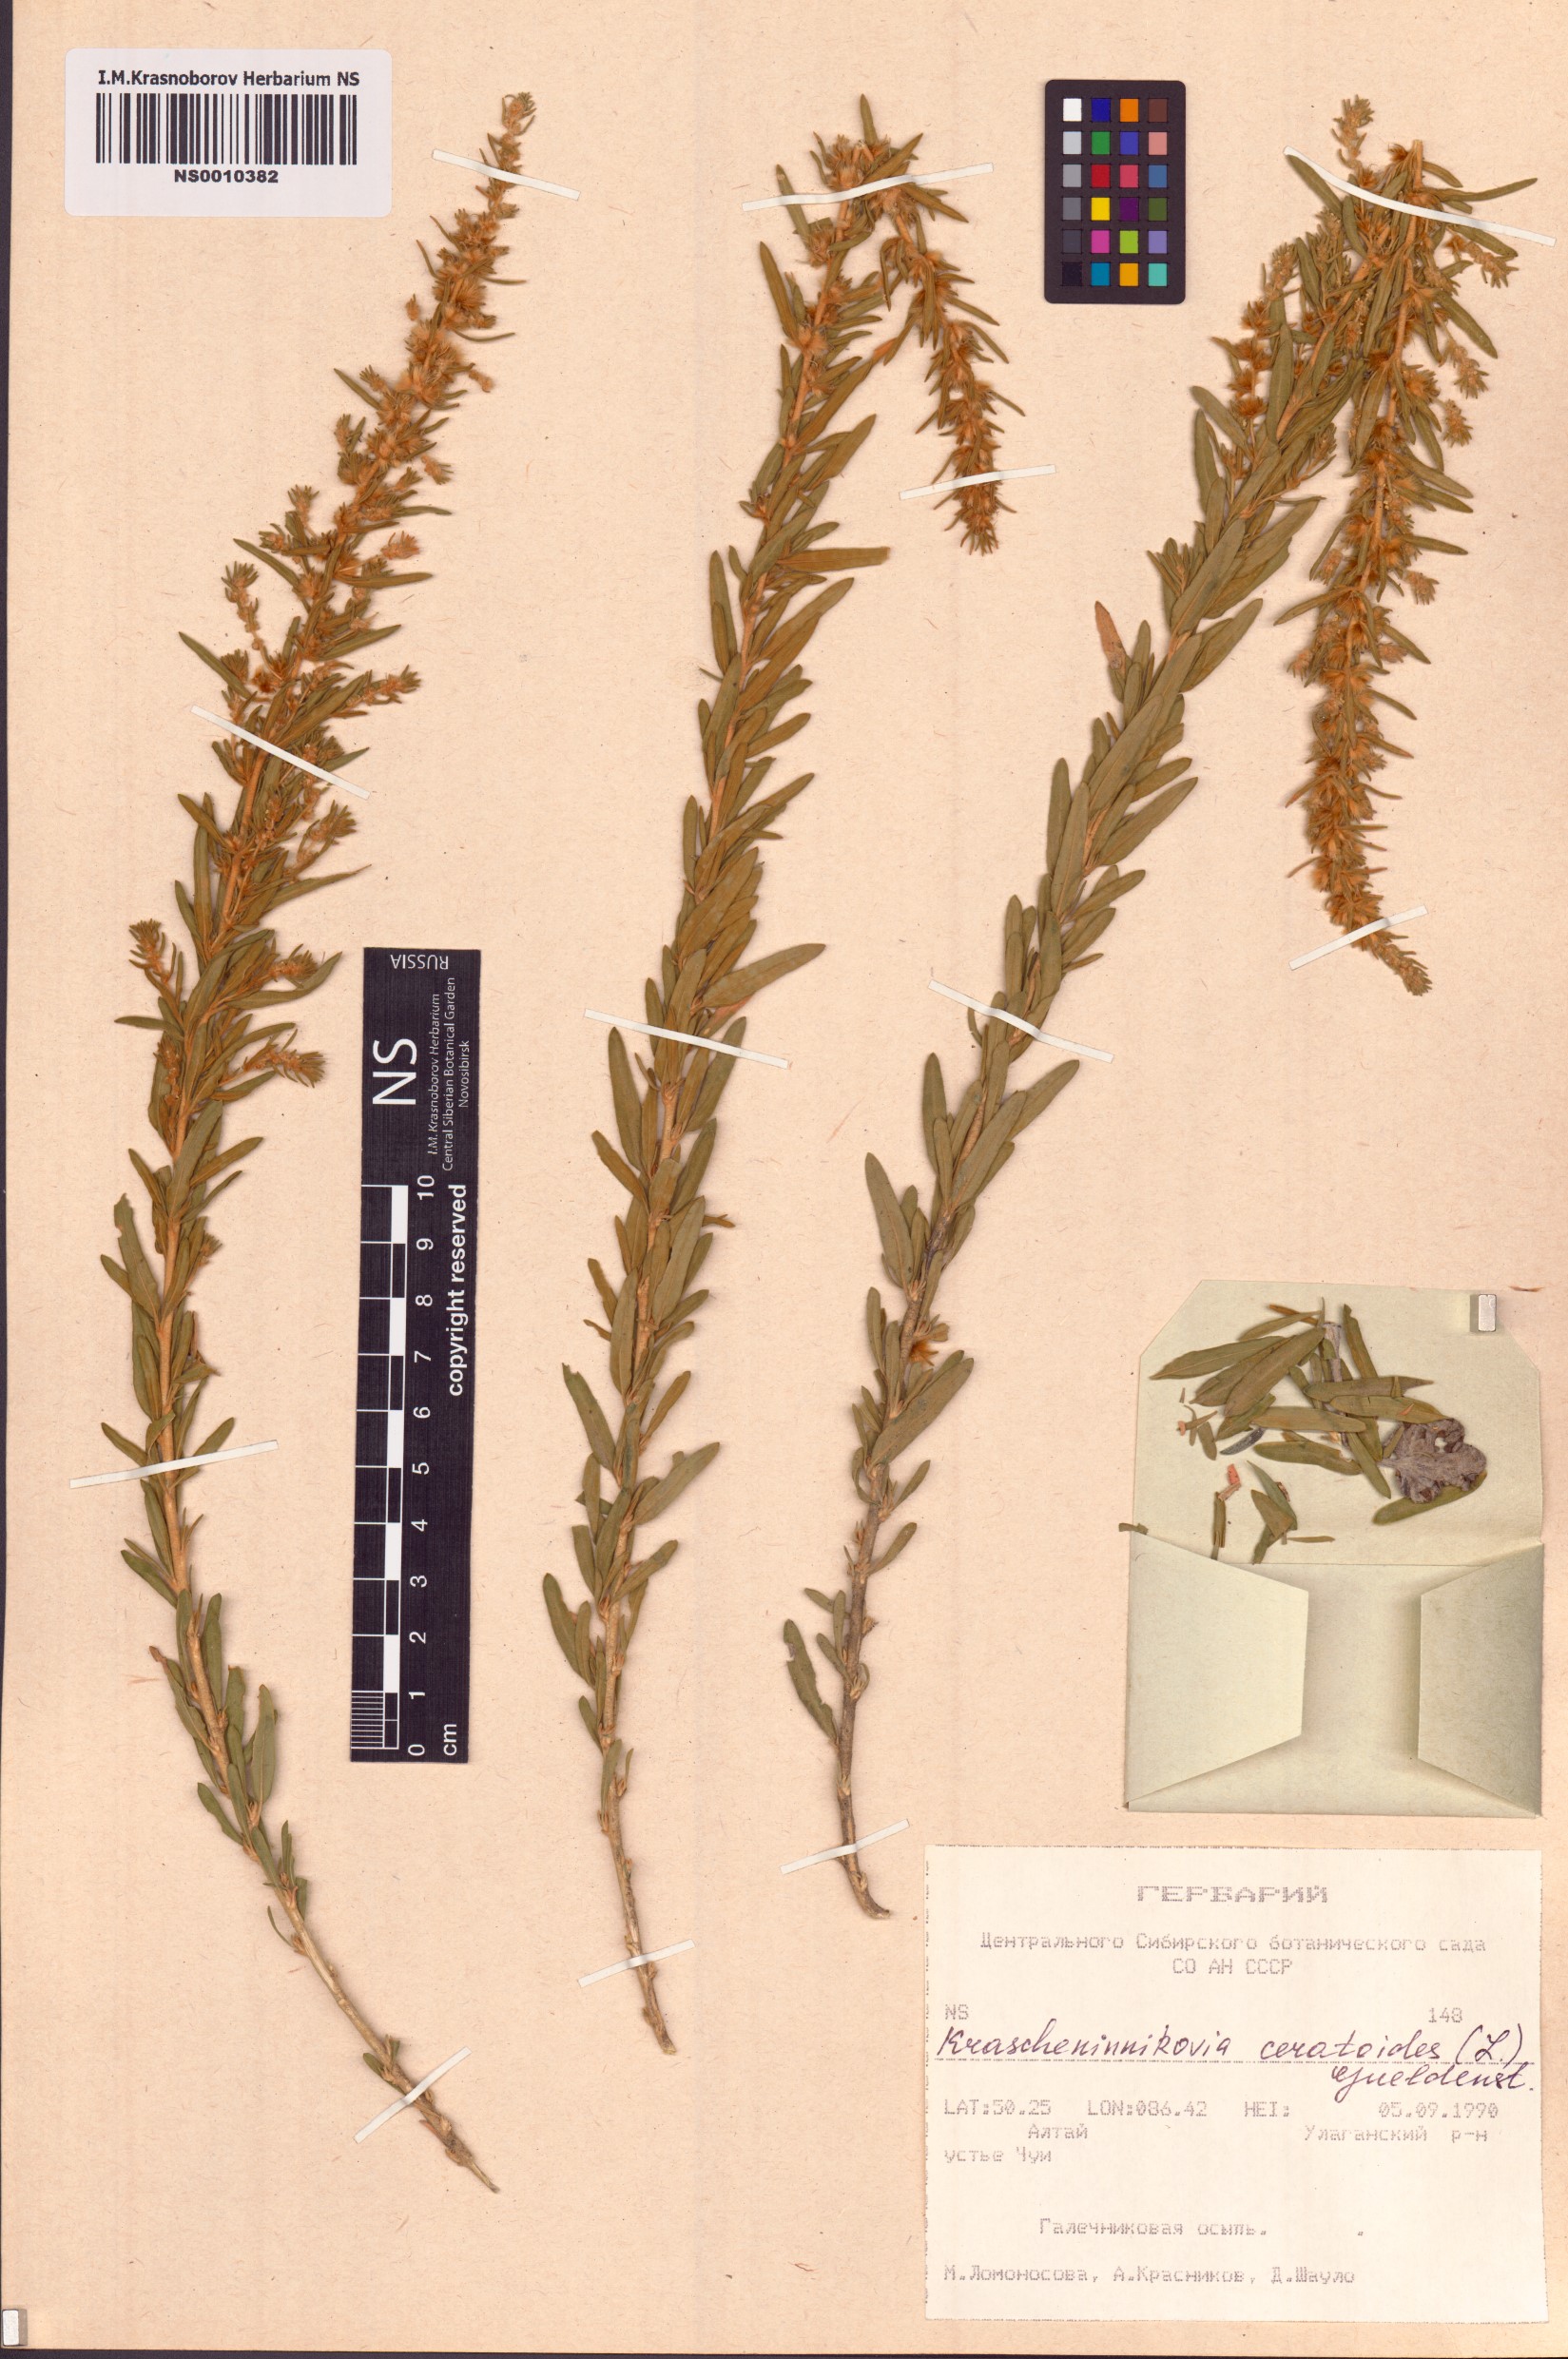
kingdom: Plantae
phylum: Tracheophyta
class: Magnoliopsida
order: Caryophyllales
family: Amaranthaceae
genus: Krascheninnikovia
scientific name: Krascheninnikovia ceratoides
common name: Pamirian winterfat
